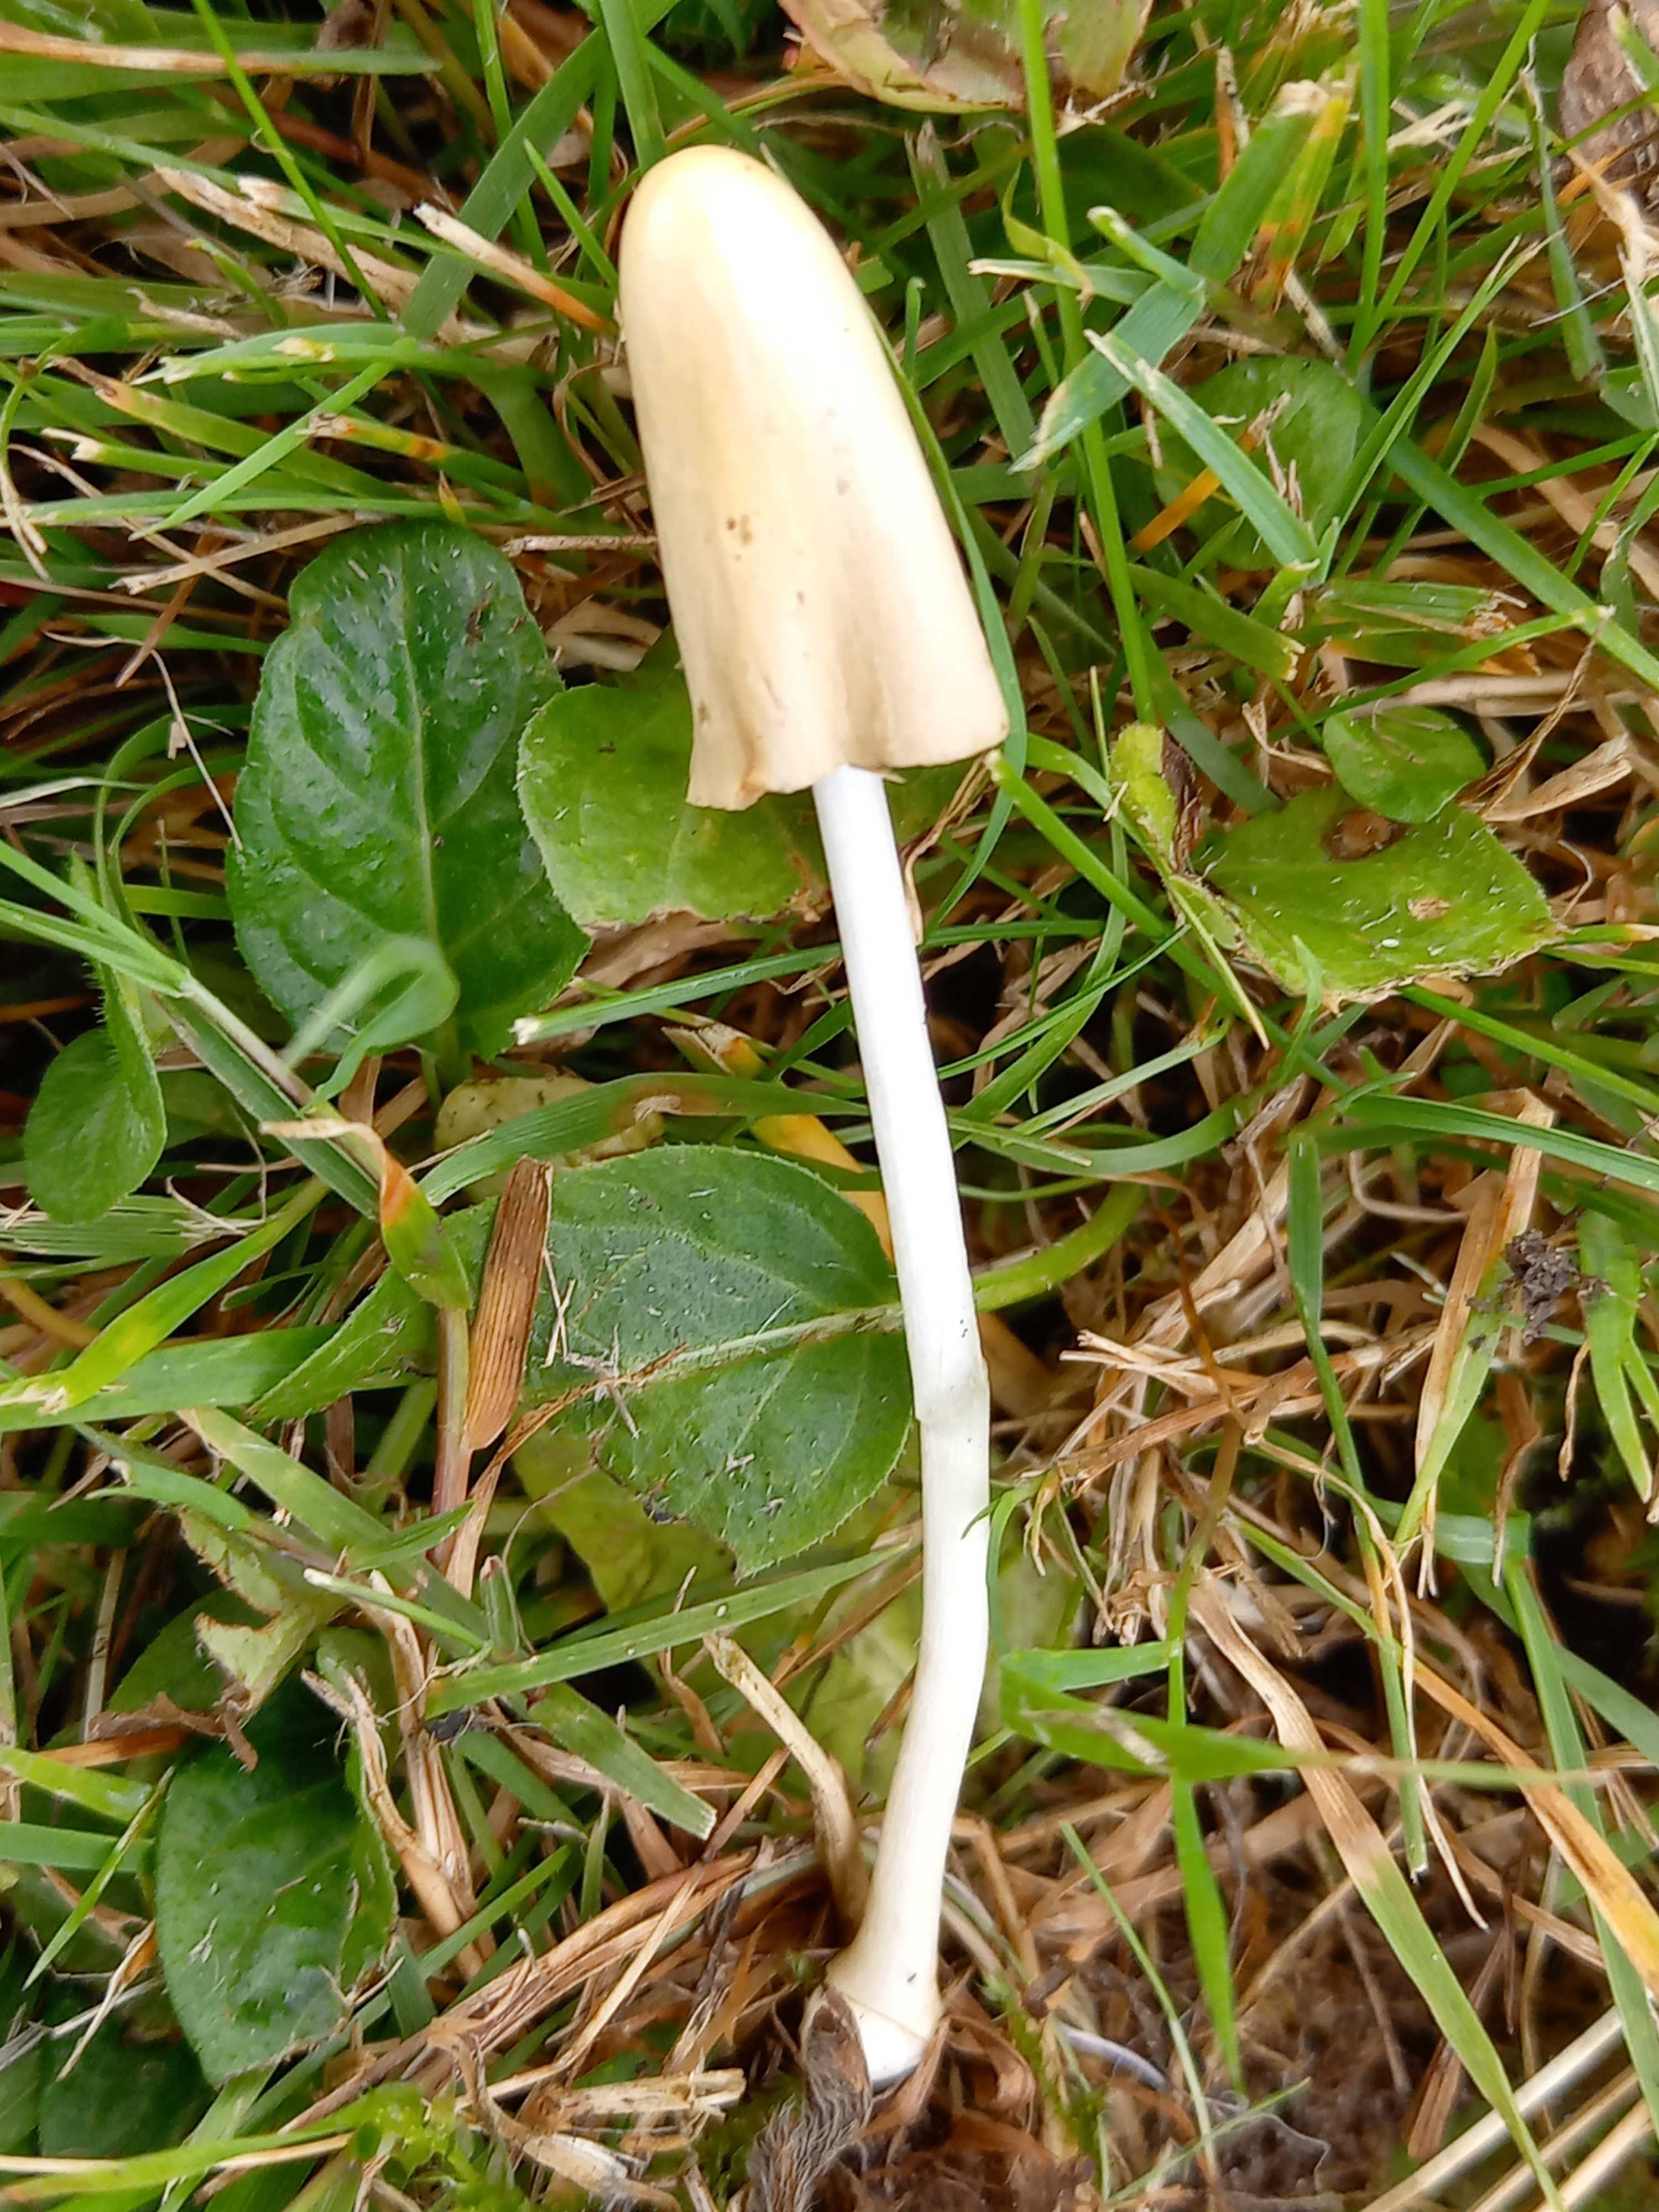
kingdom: Fungi
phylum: Basidiomycota
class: Agaricomycetes
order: Agaricales
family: Bolbitiaceae
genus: Conocybe
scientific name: Conocybe apala
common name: mælkehvid keglehat
